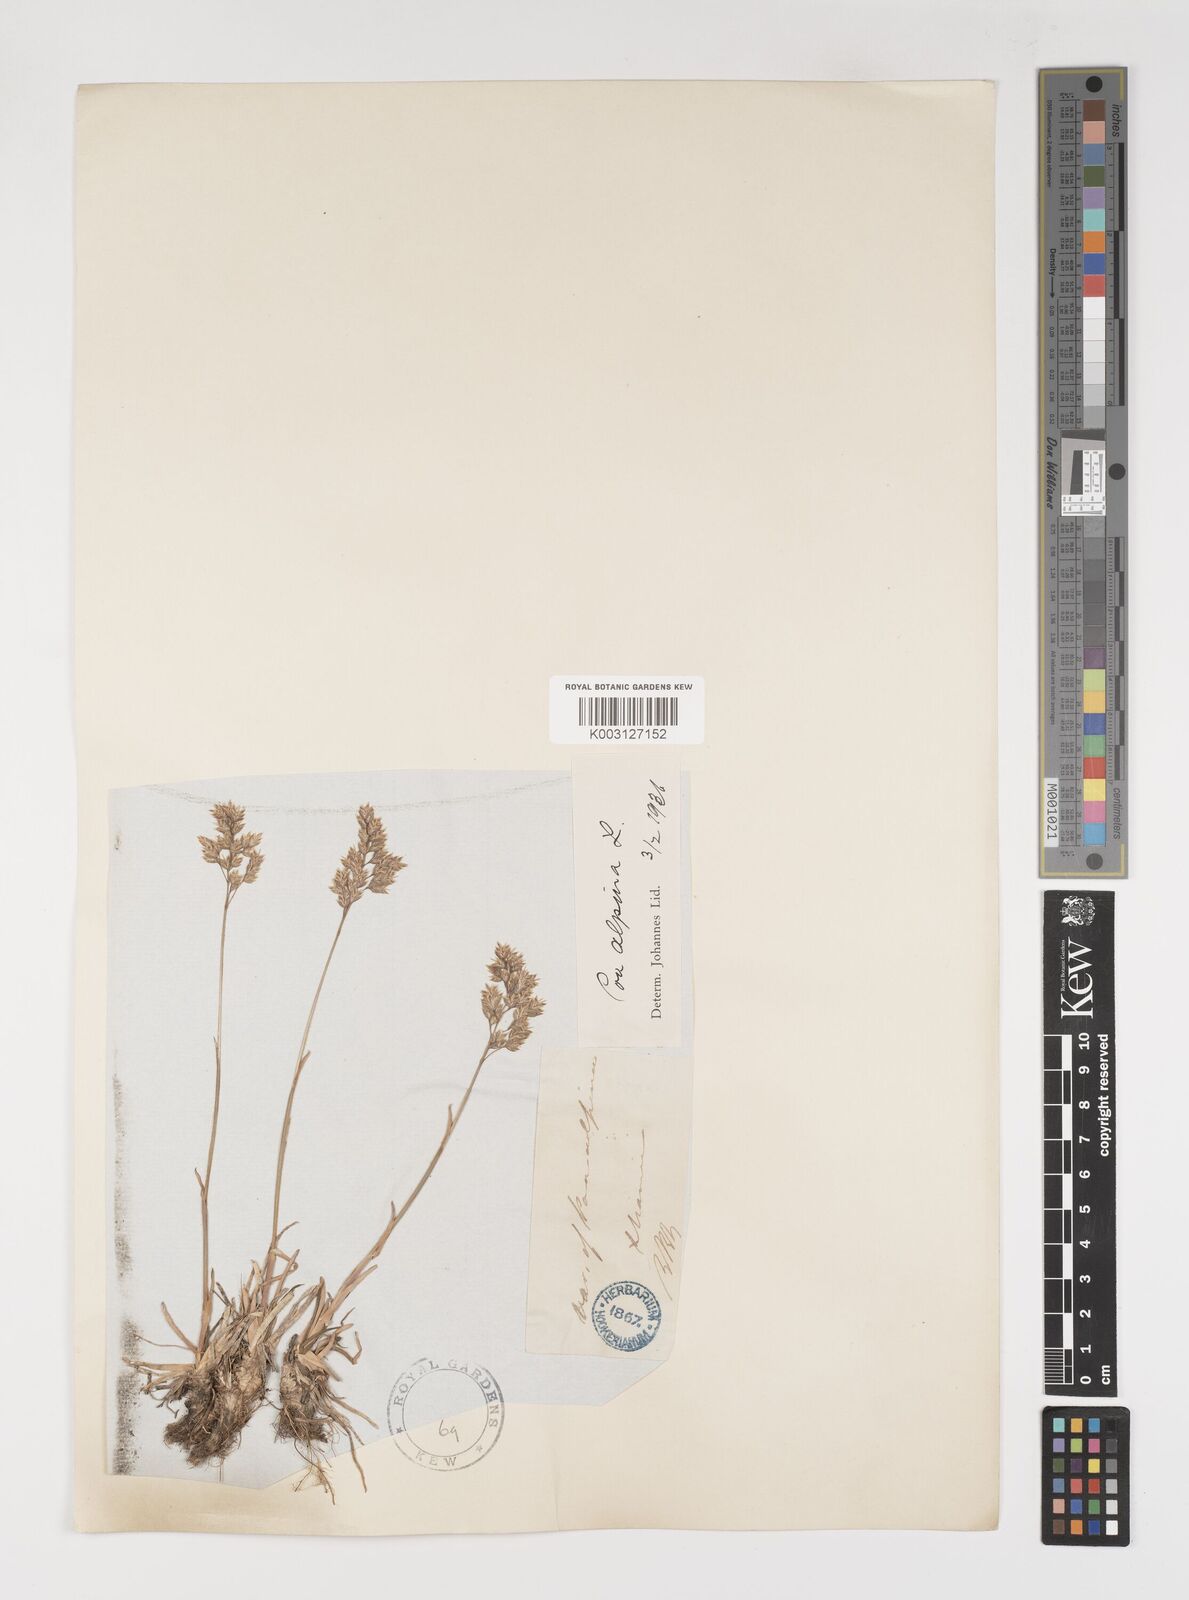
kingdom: Plantae
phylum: Tracheophyta
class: Liliopsida
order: Poales
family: Poaceae
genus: Poa
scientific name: Poa alpina
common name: Alpine bluegrass
